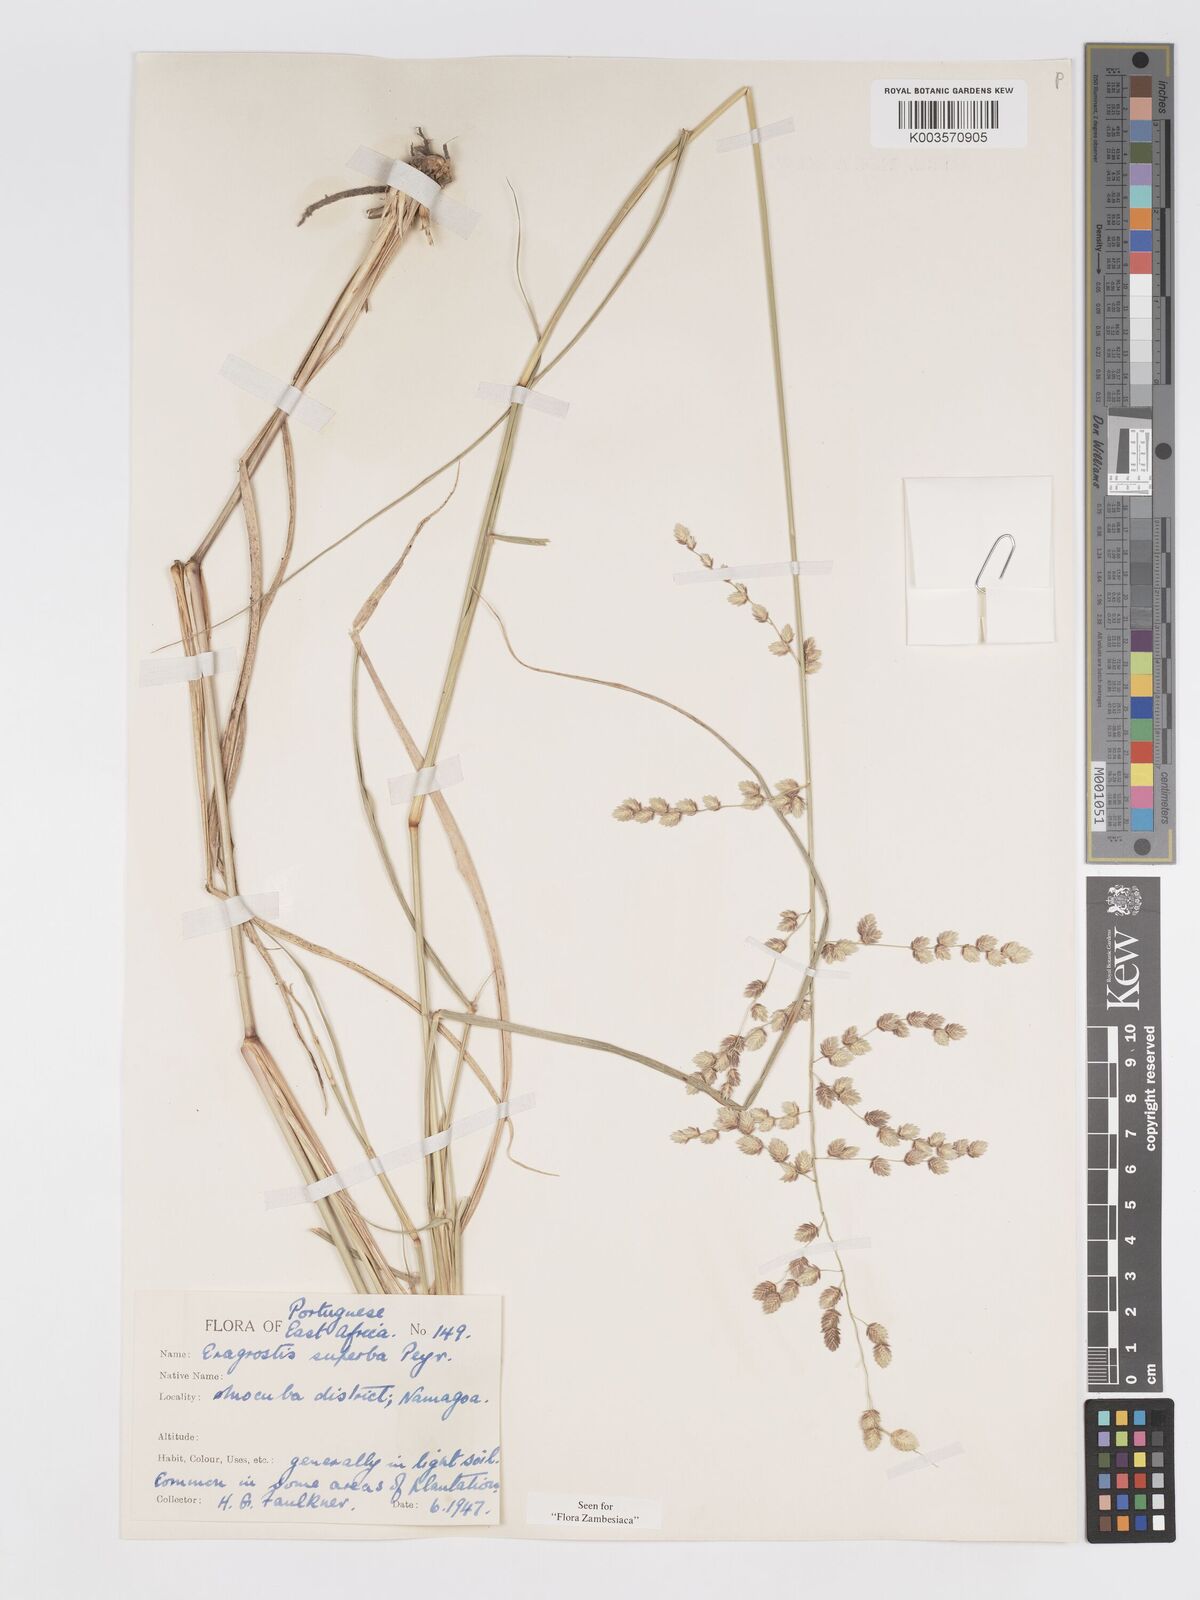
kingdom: Plantae
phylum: Tracheophyta
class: Liliopsida
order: Poales
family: Poaceae
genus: Eragrostis
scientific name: Eragrostis superba
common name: Wilman lovegrass
